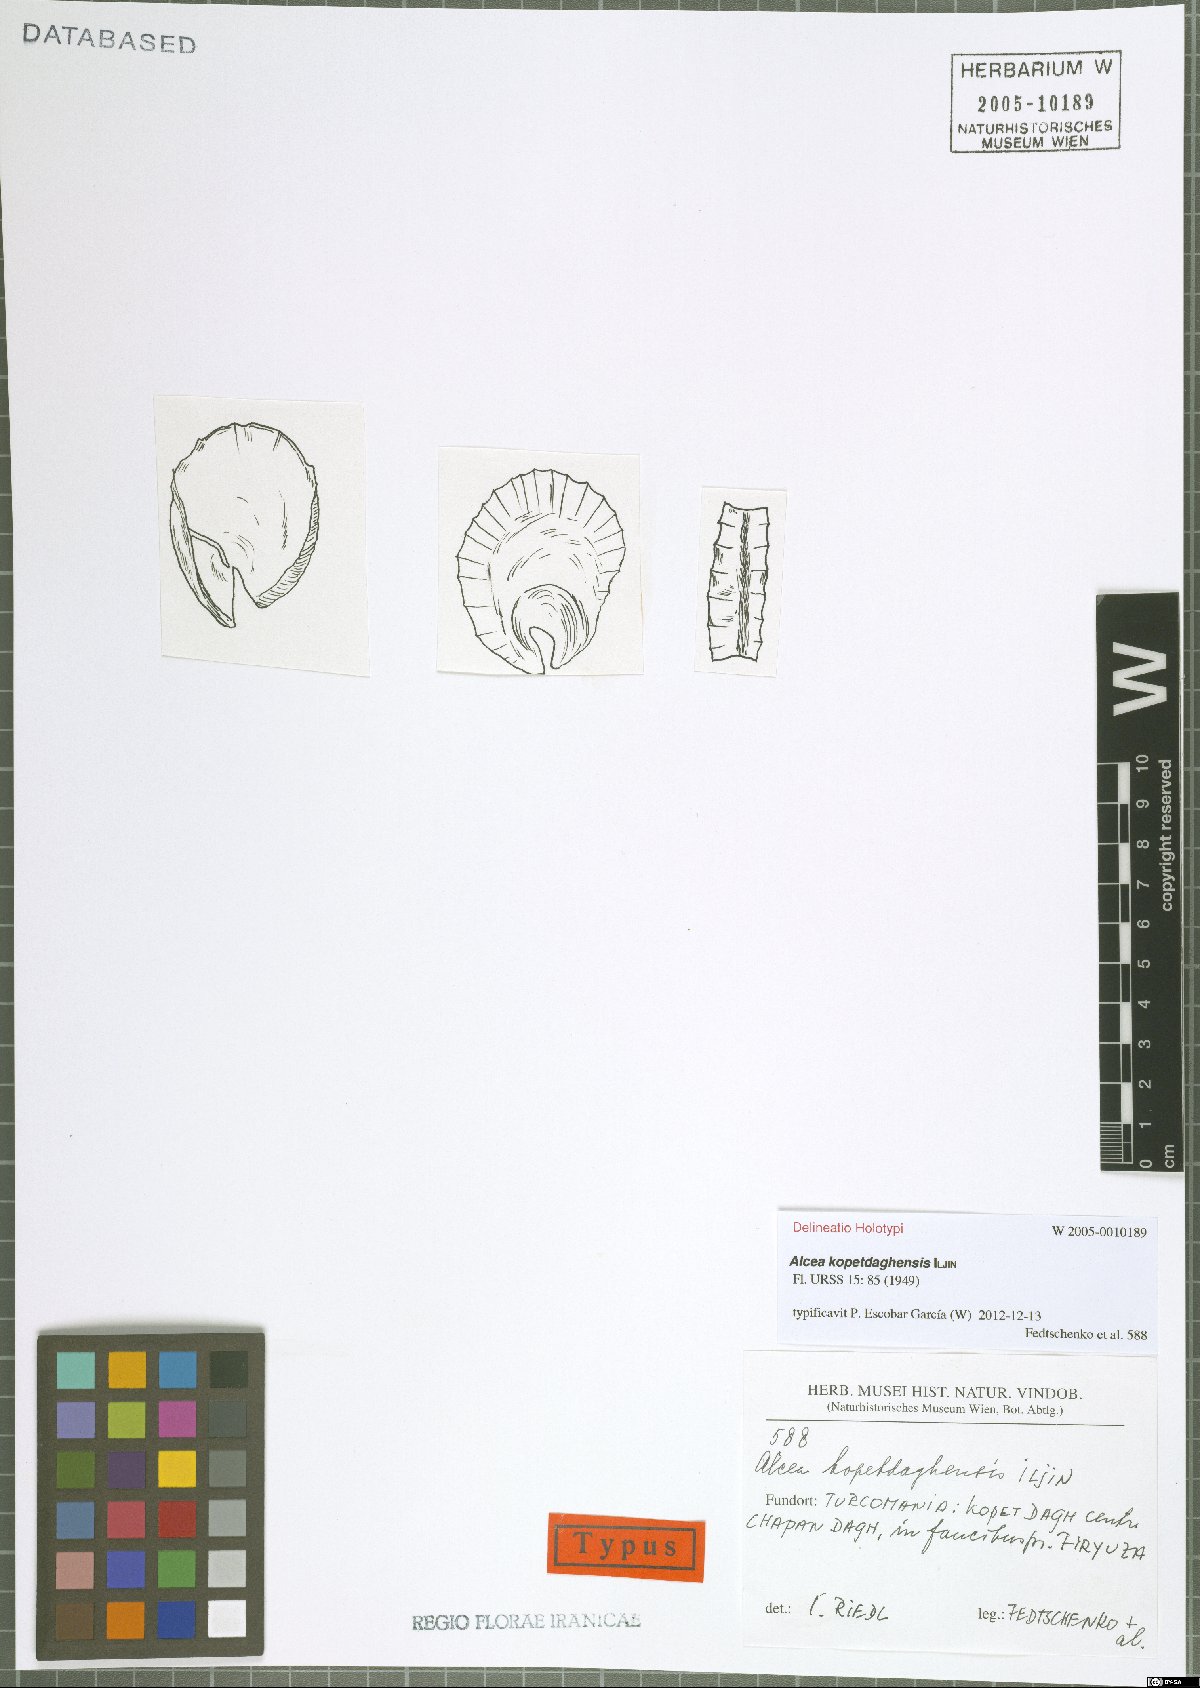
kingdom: Plantae
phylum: Tracheophyta
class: Magnoliopsida
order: Malvales
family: Malvaceae
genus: Alcea
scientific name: Alcea kopetdaghensis
